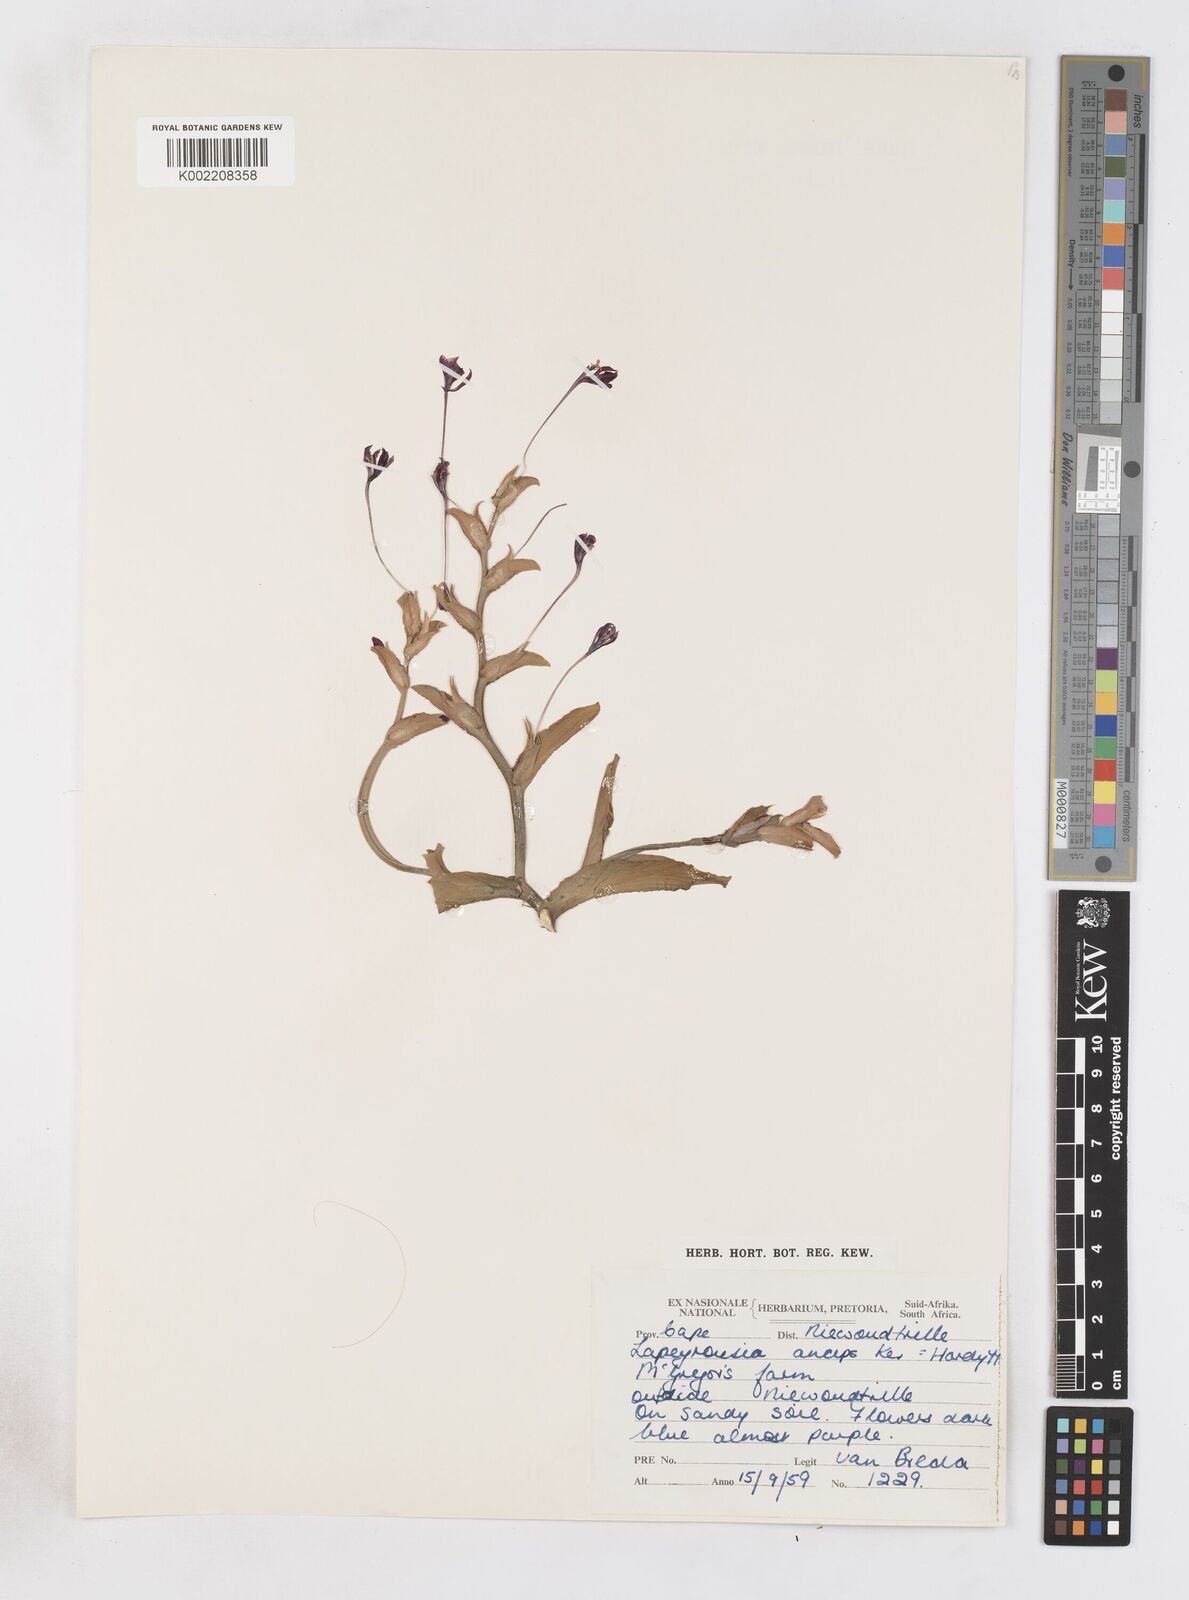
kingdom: Plantae
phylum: Tracheophyta
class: Liliopsida
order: Asparagales
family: Iridaceae
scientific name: Iridaceae
